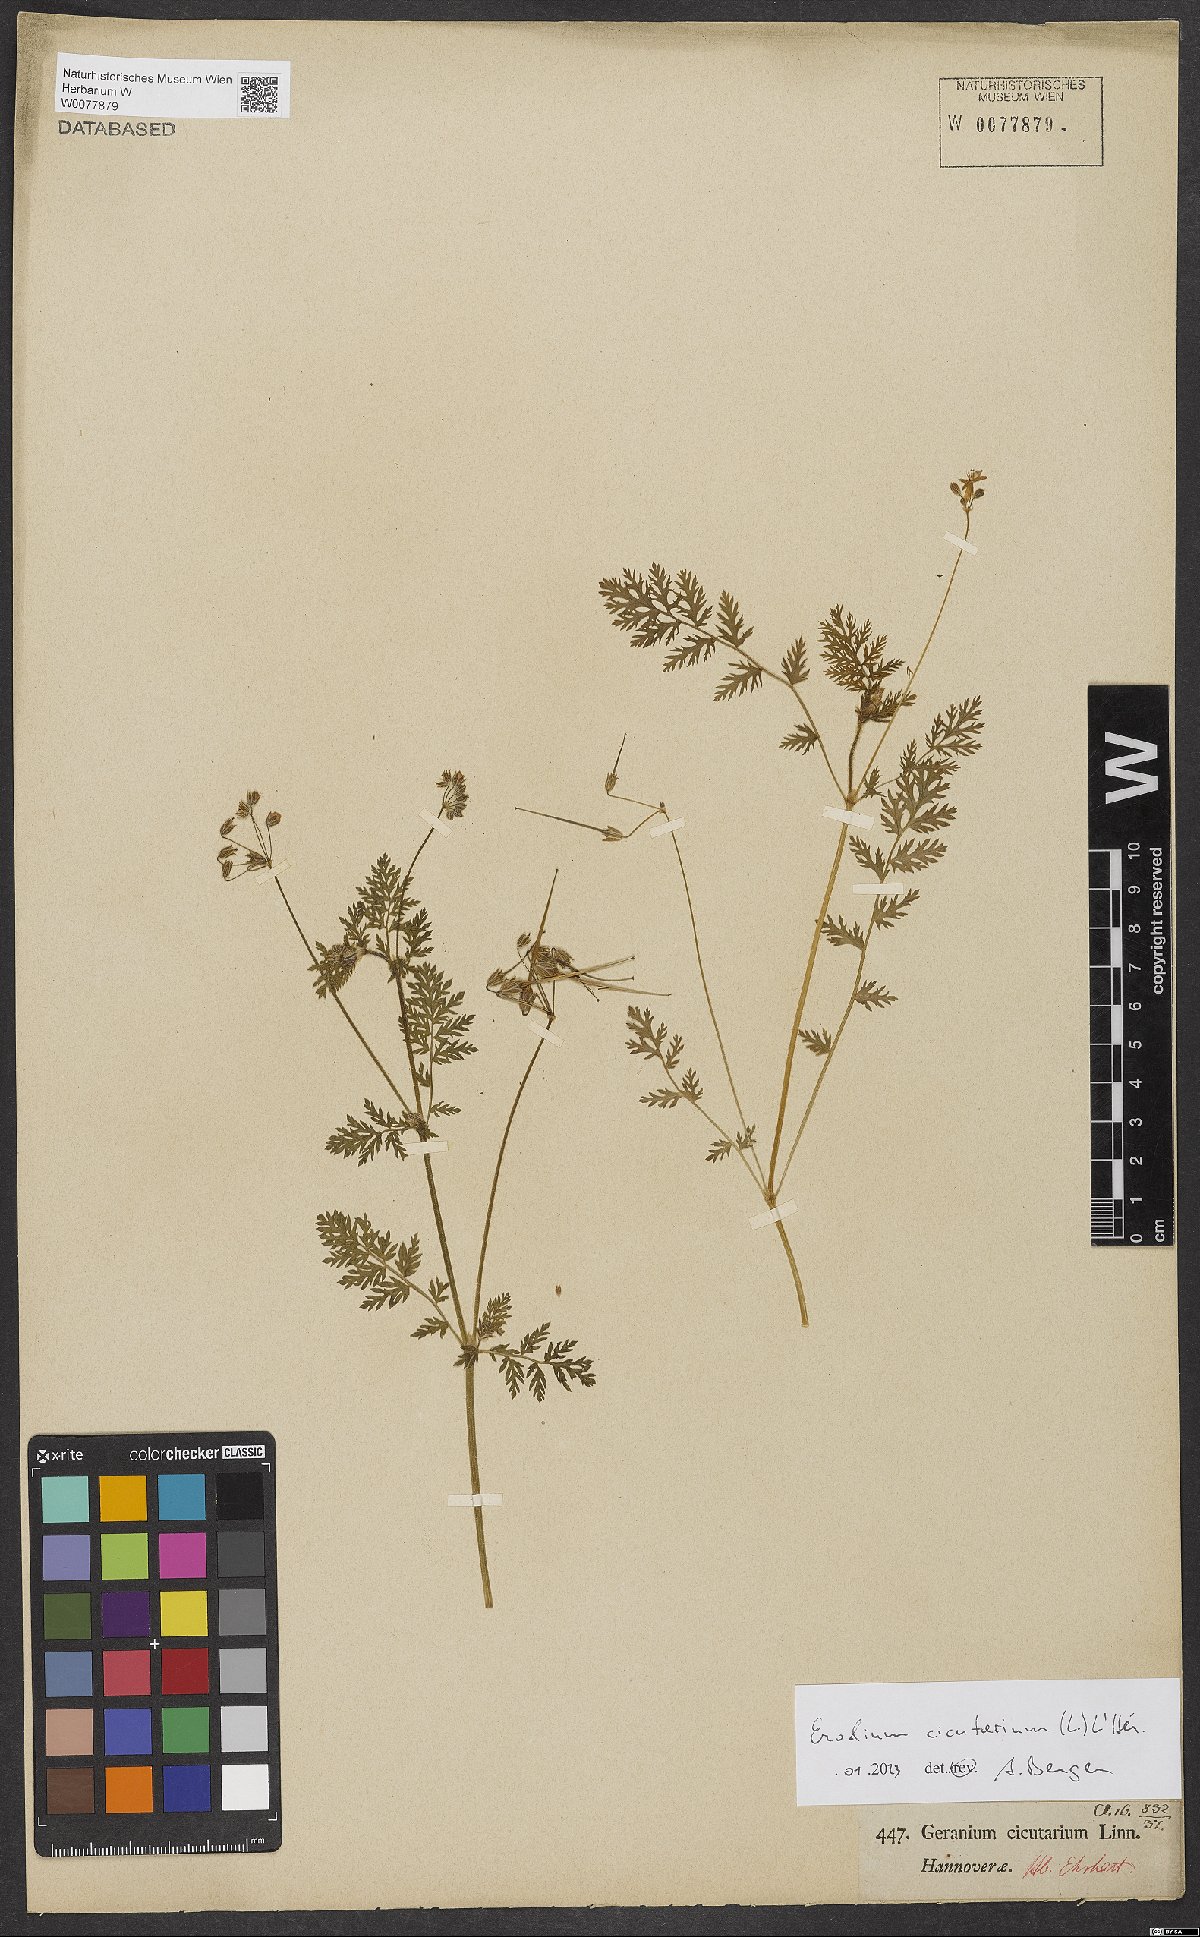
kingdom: Plantae
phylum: Tracheophyta
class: Magnoliopsida
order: Geraniales
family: Geraniaceae
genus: Erodium
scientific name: Erodium cicutarium
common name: Common stork's-bill
